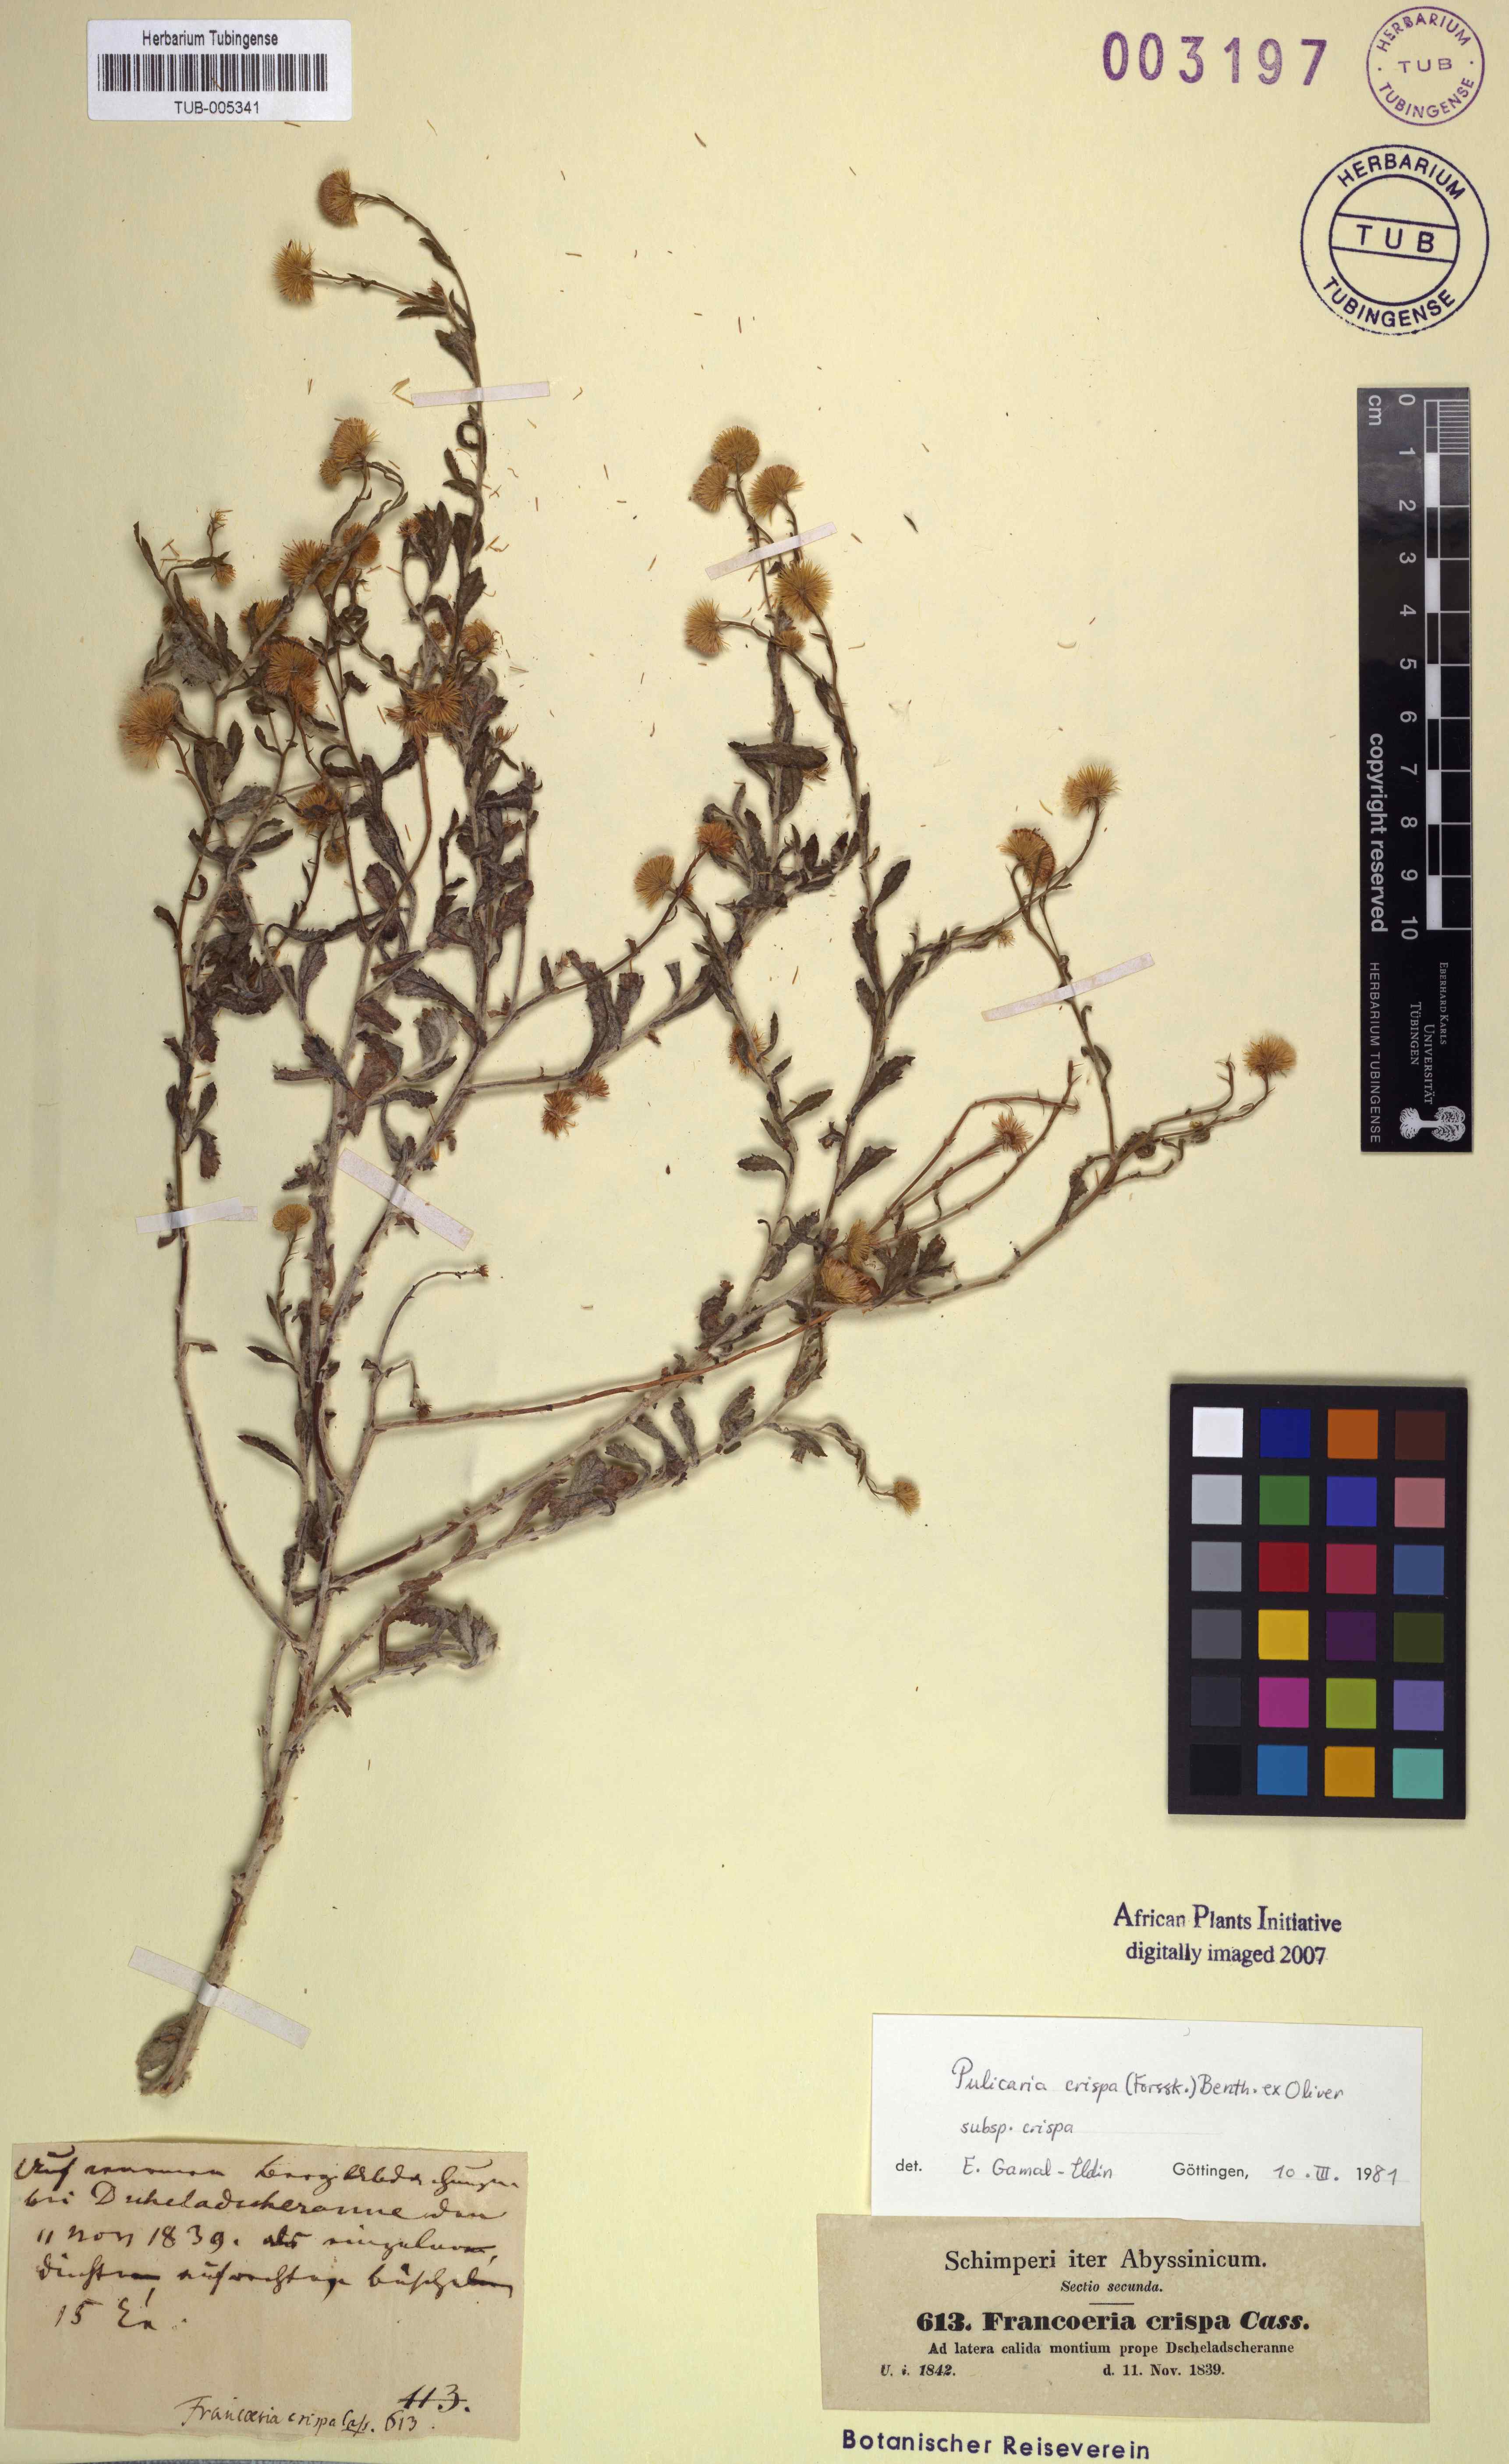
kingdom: Plantae
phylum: Tracheophyta
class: Magnoliopsida
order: Asterales
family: Asteraceae
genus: Pulicaria
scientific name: Pulicaria undulata
